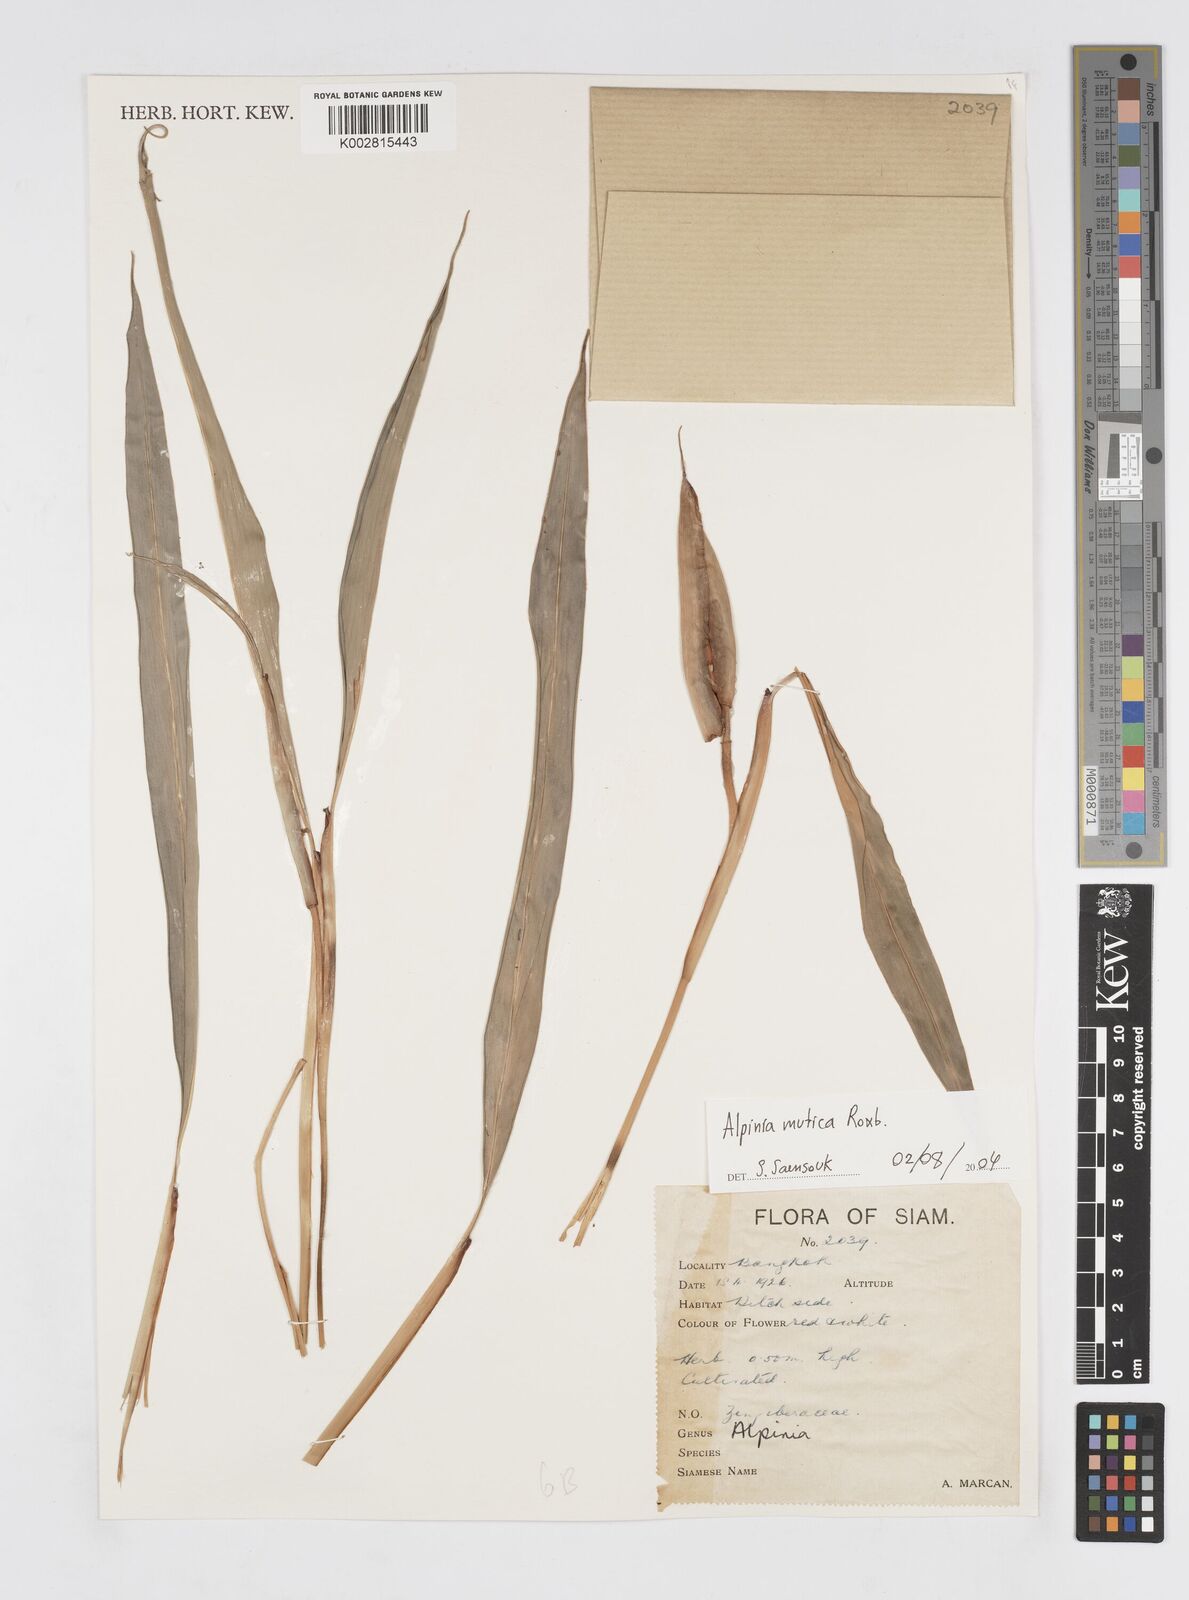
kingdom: Plantae
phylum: Tracheophyta
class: Liliopsida
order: Zingiberales
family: Zingiberaceae
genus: Alpinia
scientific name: Alpinia mutica
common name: Small shell ginger
